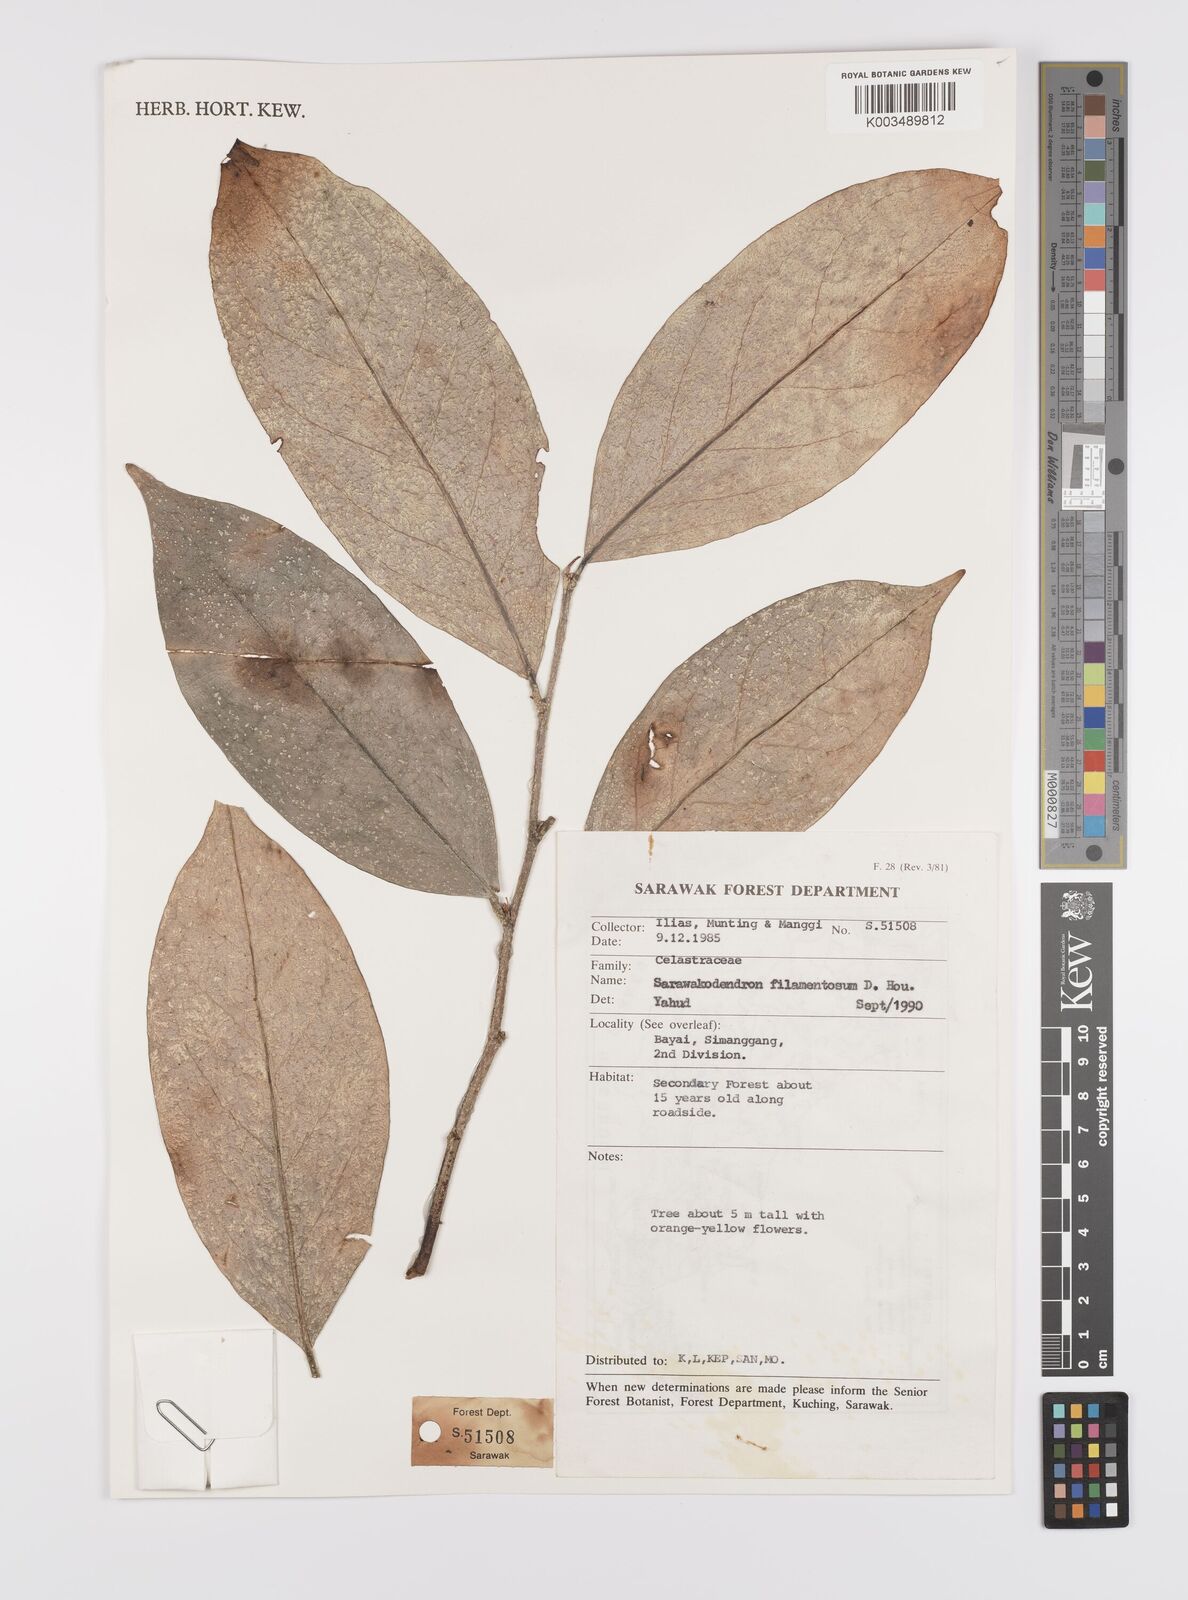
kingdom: Plantae
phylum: Tracheophyta
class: Magnoliopsida
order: Celastrales
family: Celastraceae
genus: Sarawakodendron
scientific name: Sarawakodendron filamentosum
